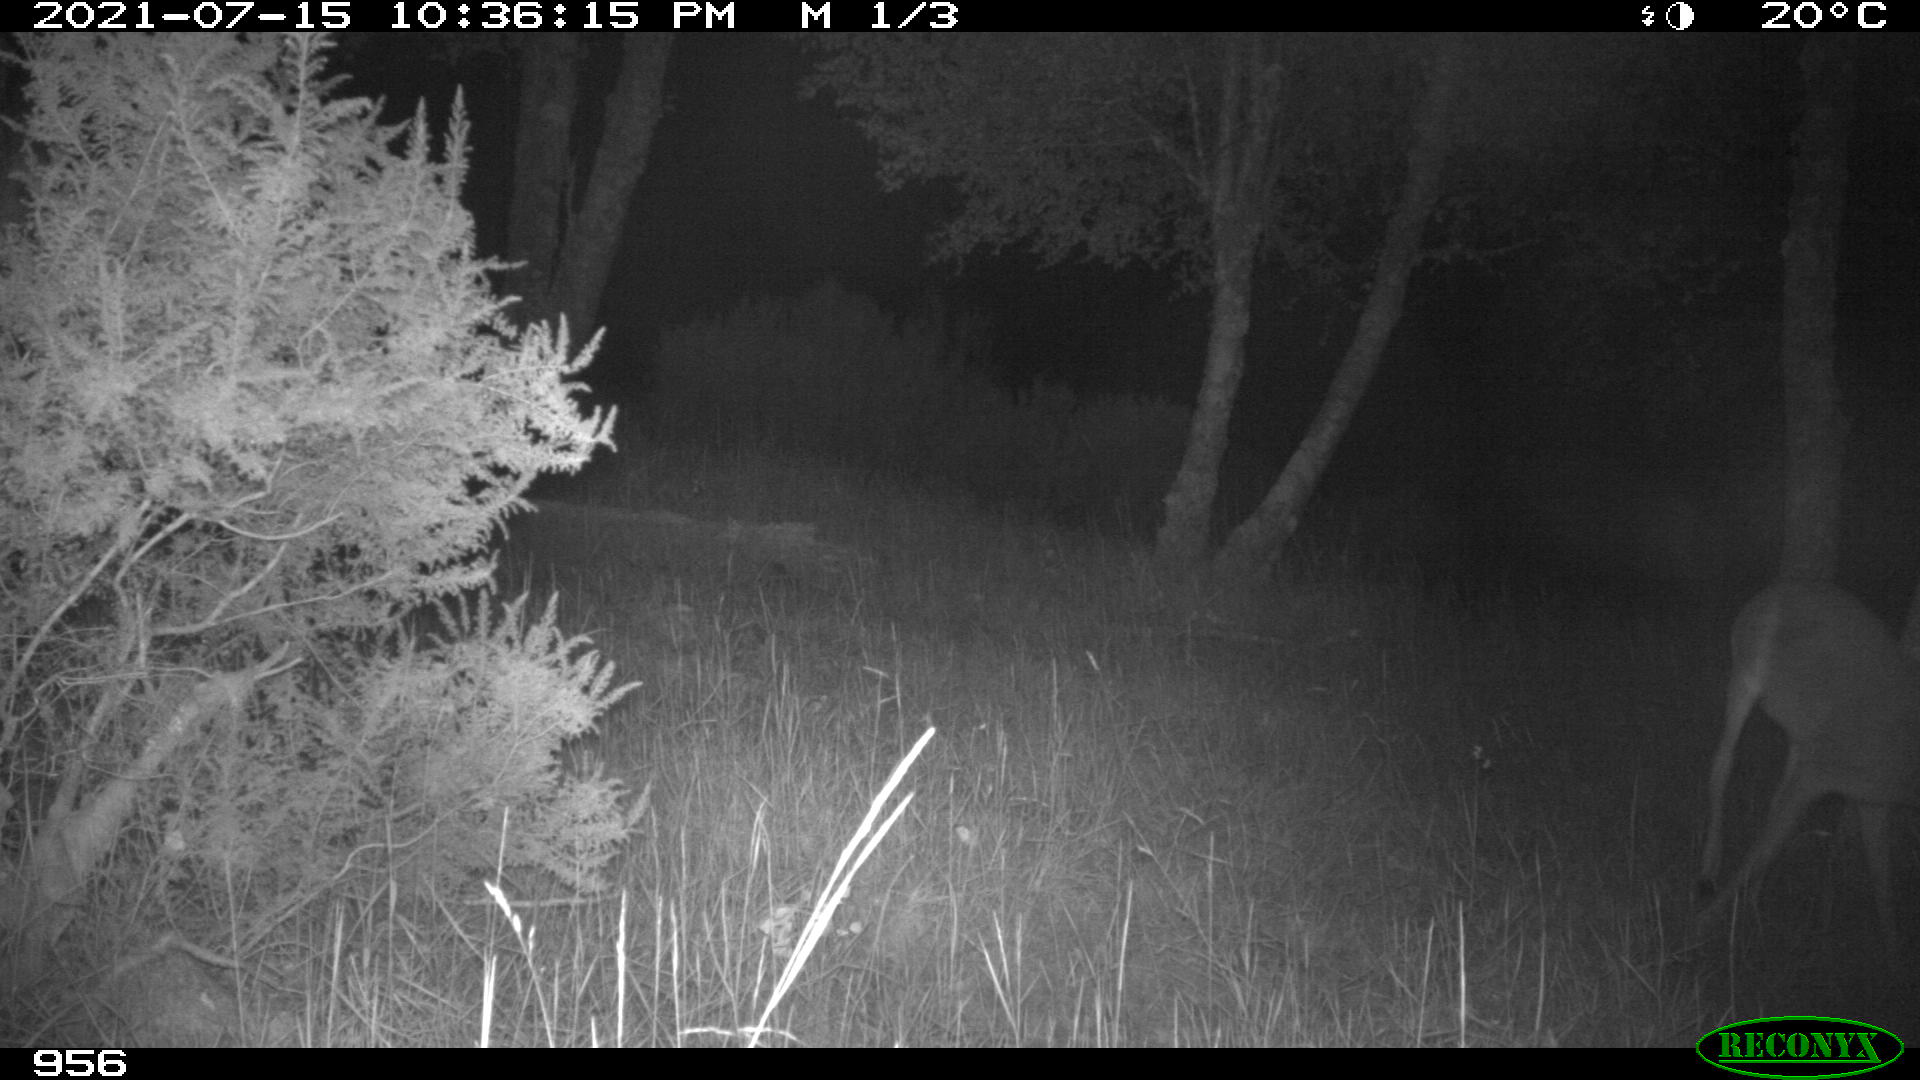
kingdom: Animalia
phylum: Chordata
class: Mammalia
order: Artiodactyla
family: Cervidae
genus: Capreolus
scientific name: Capreolus capreolus
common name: Western roe deer
